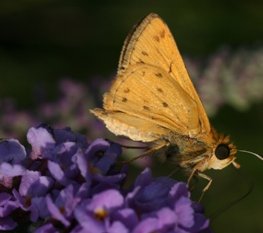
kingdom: Animalia
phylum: Arthropoda
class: Insecta
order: Lepidoptera
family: Hesperiidae
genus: Hylephila
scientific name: Hylephila phyleus
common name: Fiery Skipper
